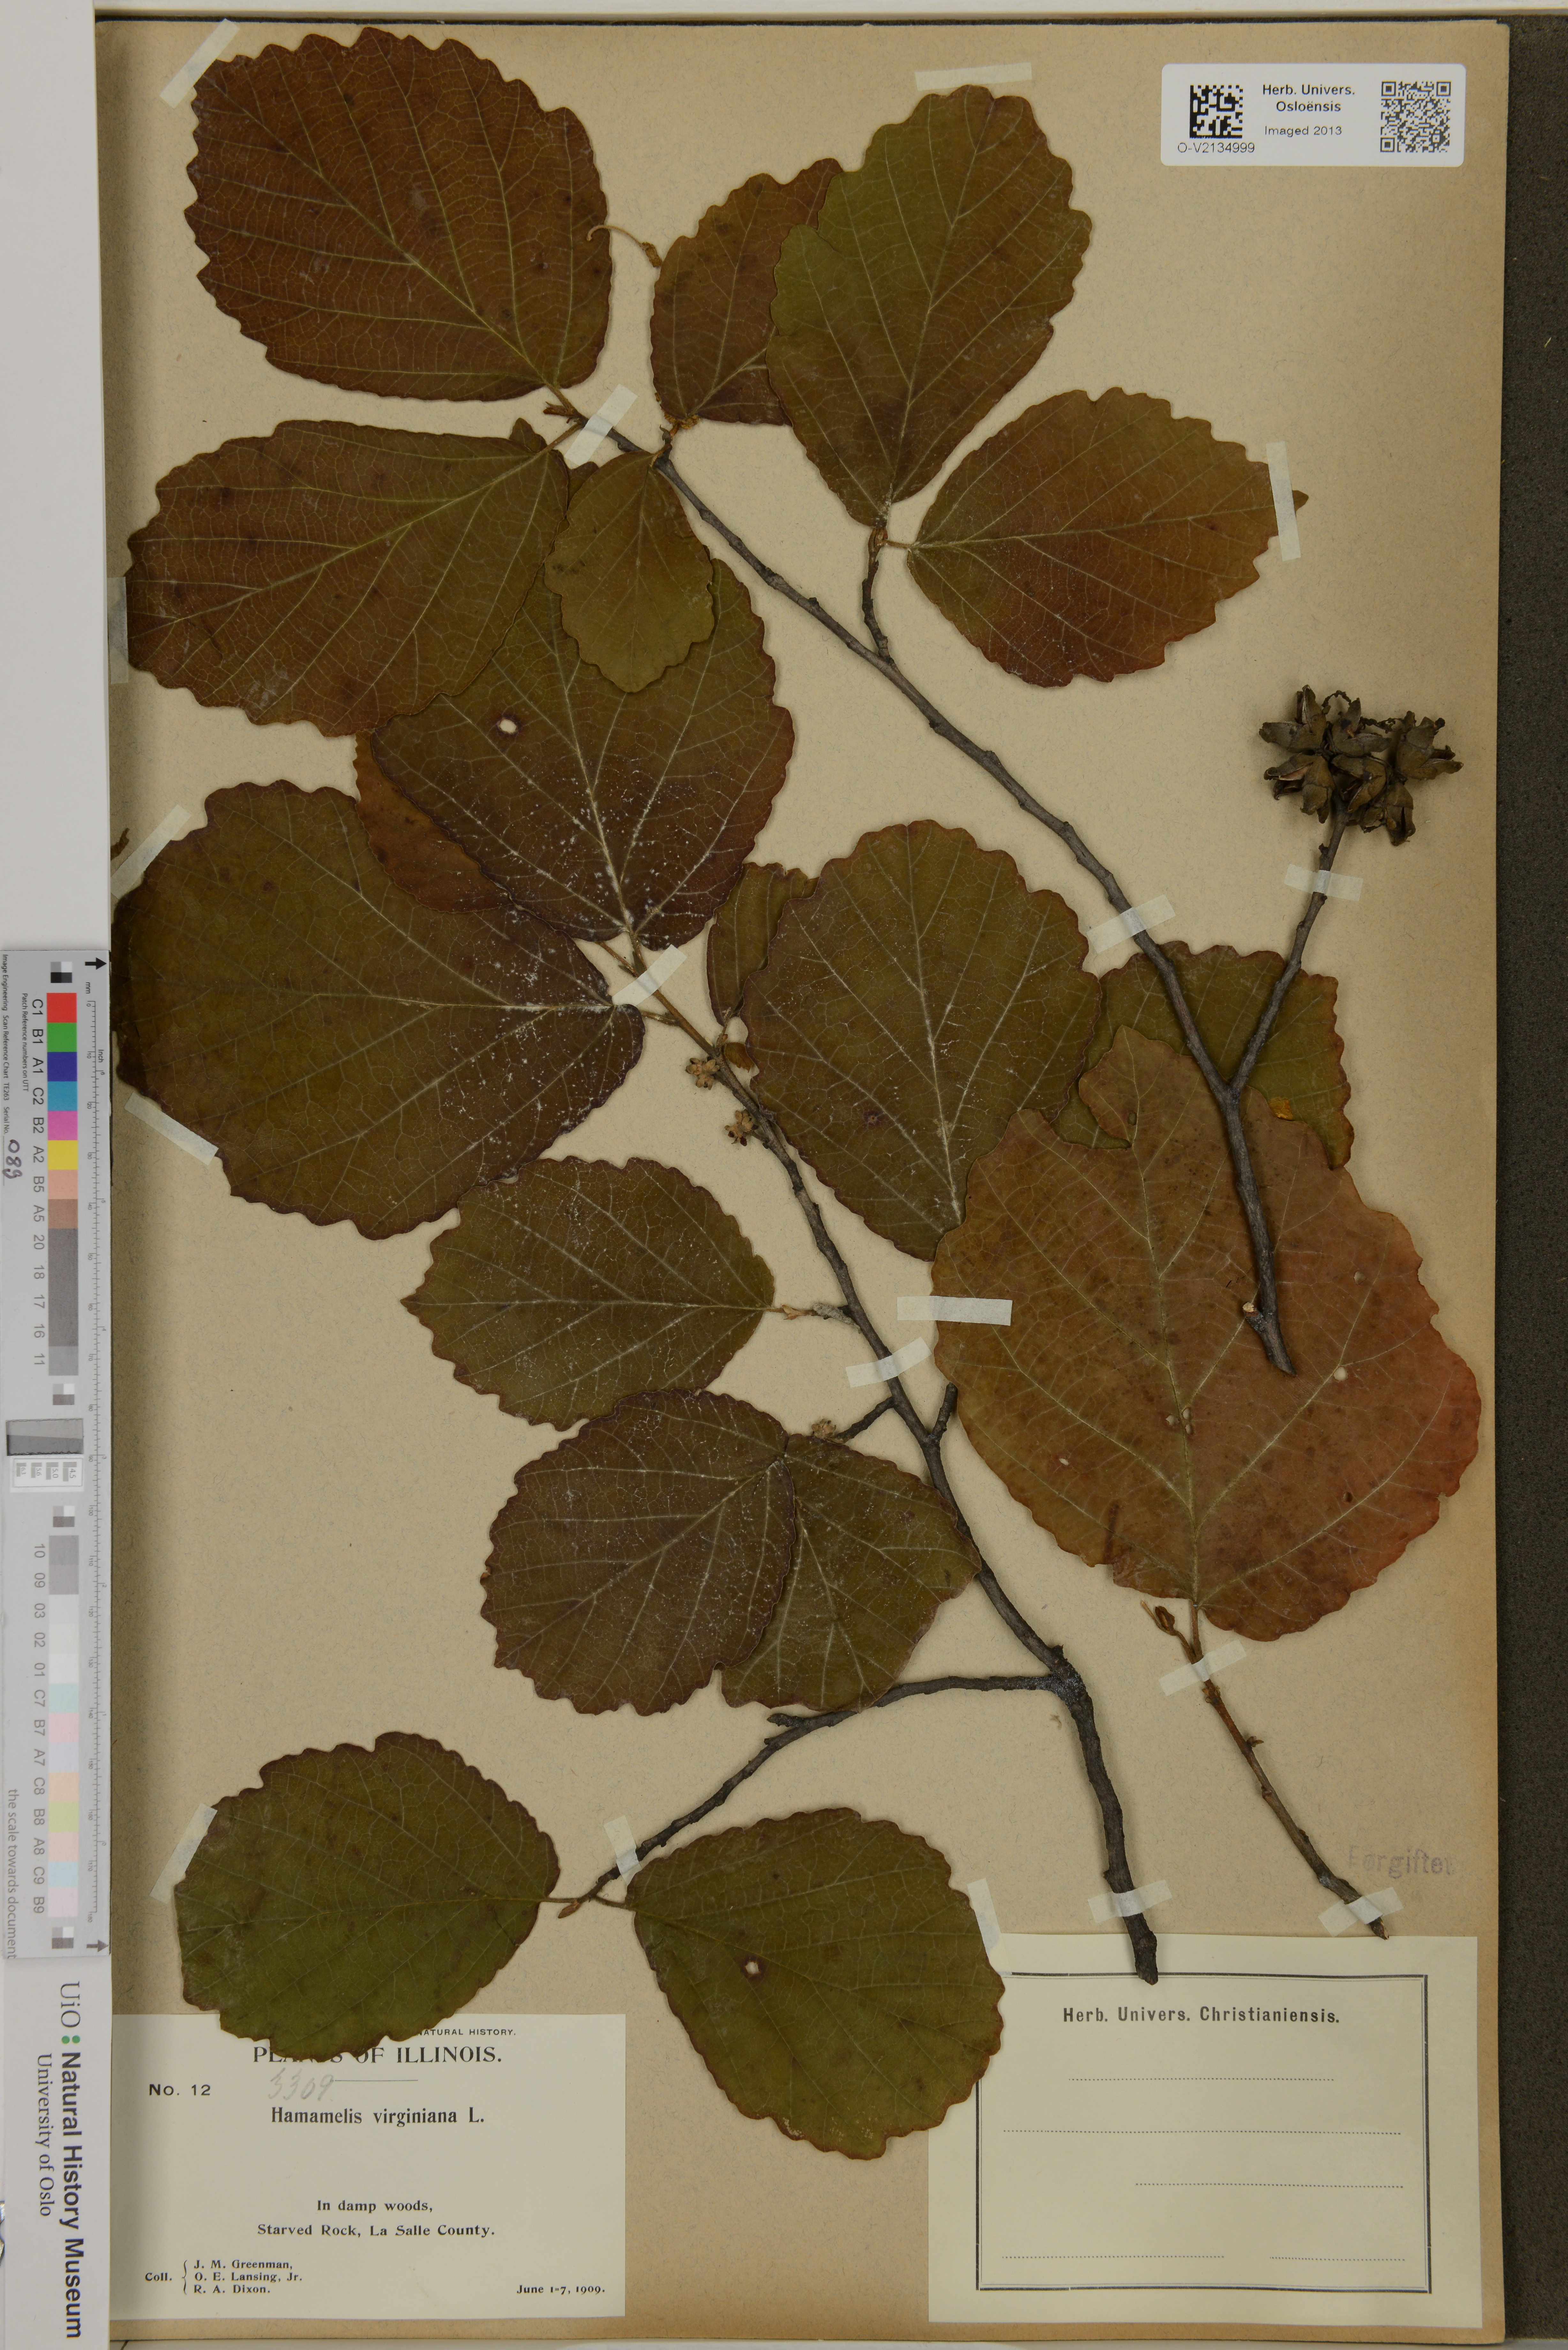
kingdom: Plantae
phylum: Tracheophyta
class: Magnoliopsida
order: Saxifragales
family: Hamamelidaceae
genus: Hamamelis
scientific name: Hamamelis virginiana
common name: Witch-hazel
